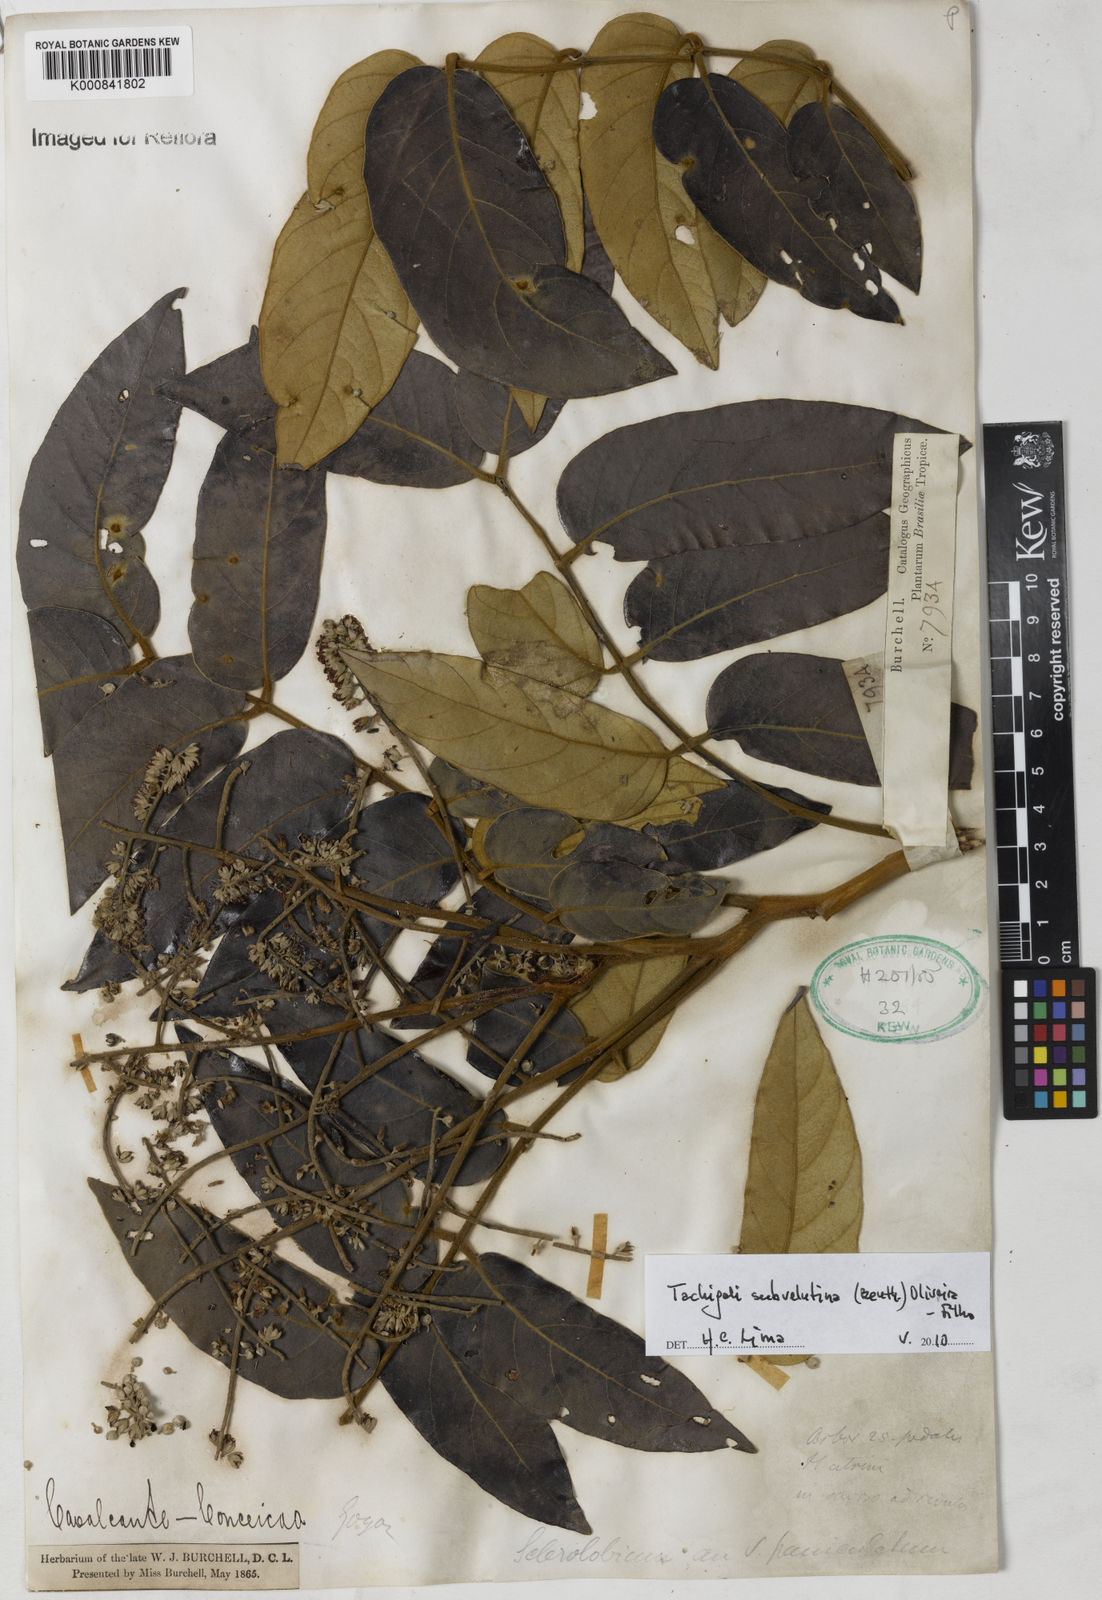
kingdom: Plantae
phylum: Tracheophyta
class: Magnoliopsida
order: Fabales
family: Fabaceae
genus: Tachigali
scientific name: Tachigali subvelutina
